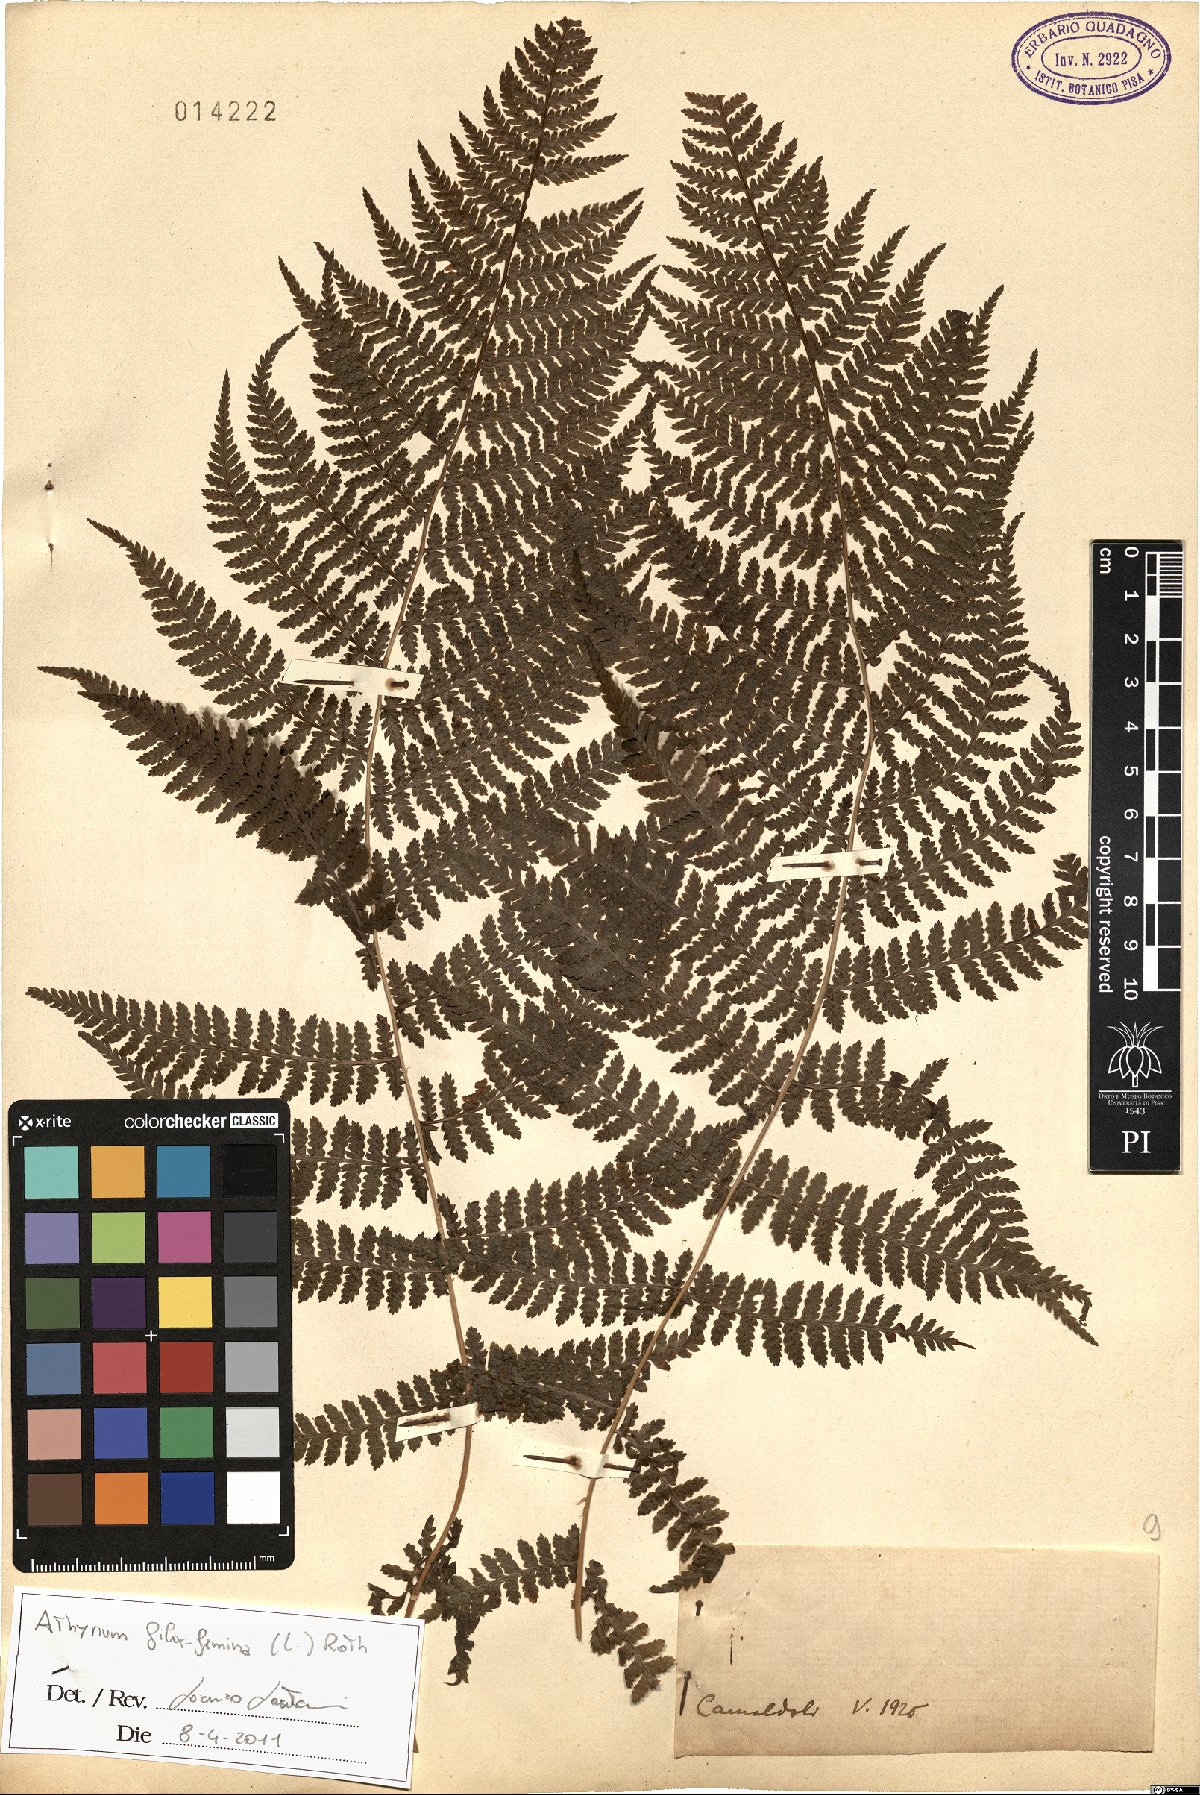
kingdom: Plantae
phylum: Tracheophyta
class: Polypodiopsida
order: Polypodiales
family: Athyriaceae
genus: Athyrium
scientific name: Athyrium filix-femina
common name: Lady fern
